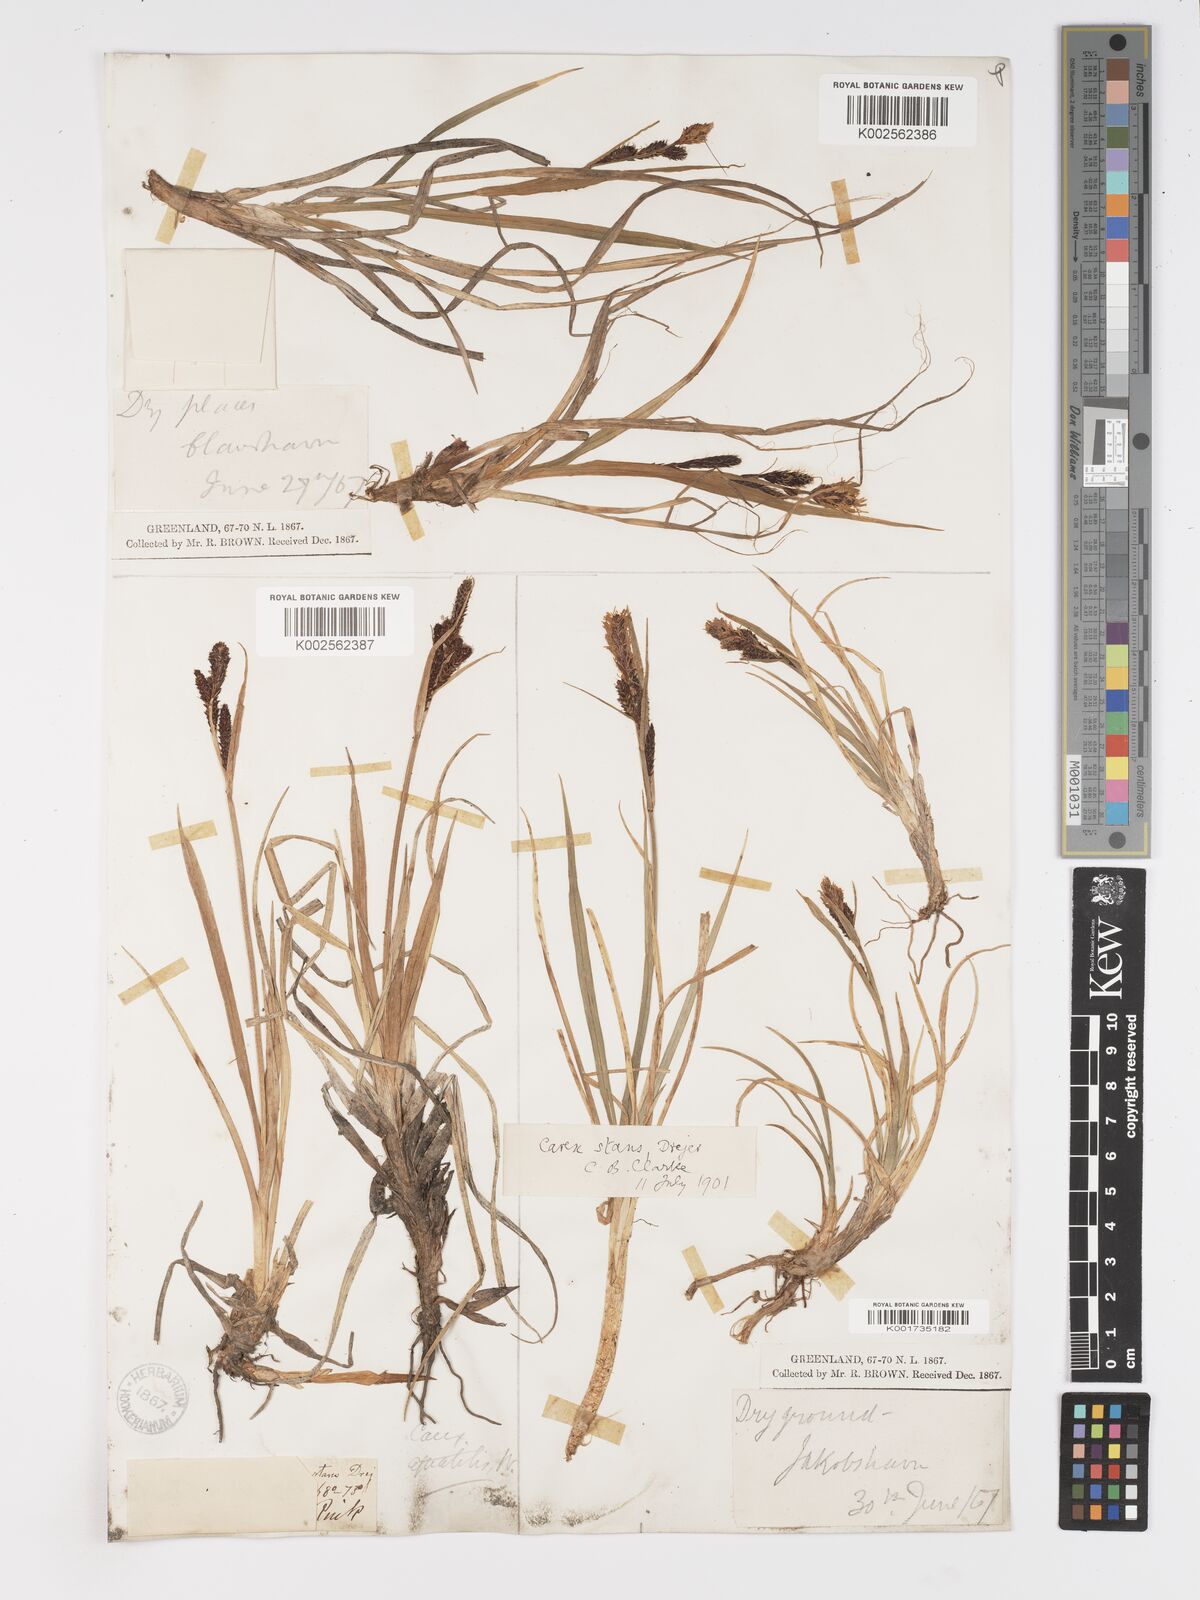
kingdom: Plantae
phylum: Tracheophyta
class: Liliopsida
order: Poales
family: Cyperaceae
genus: Carex
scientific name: Carex aquatilis
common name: Water sedge
